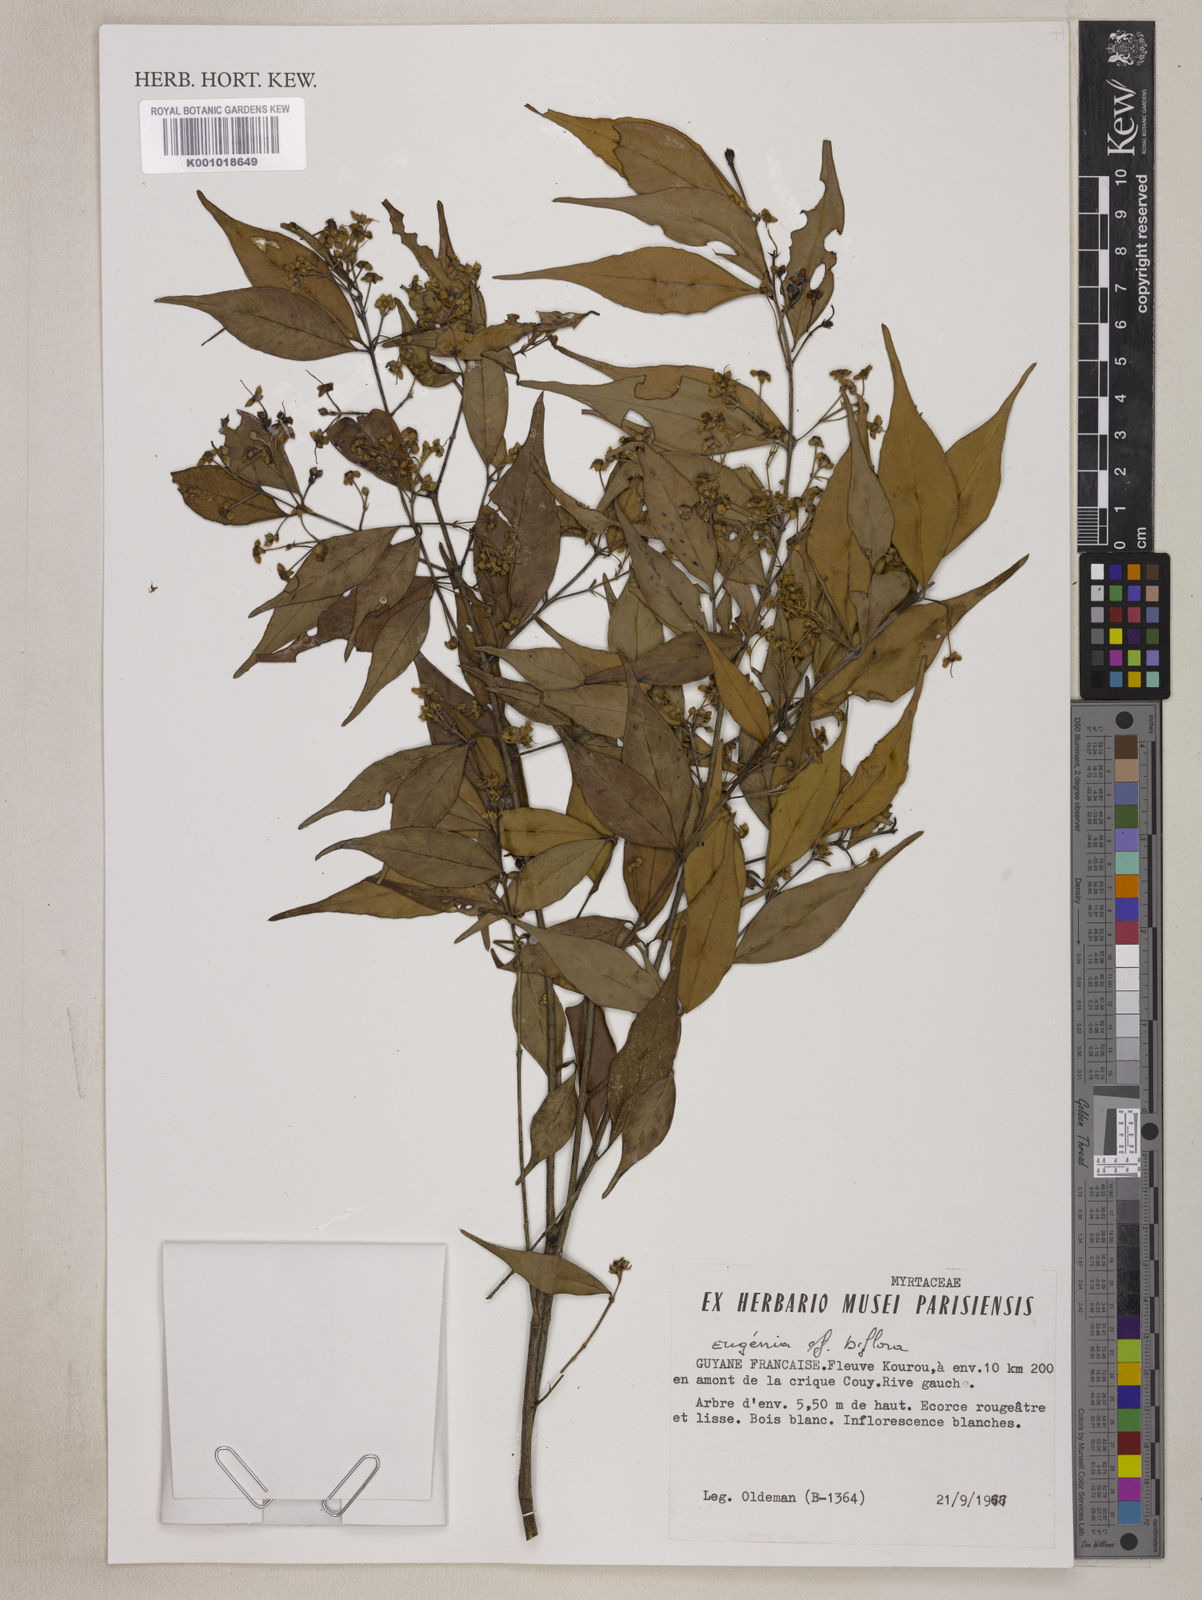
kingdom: Plantae
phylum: Tracheophyta
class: Magnoliopsida
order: Myrtales
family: Myrtaceae
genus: Eugenia
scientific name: Eugenia biflora
